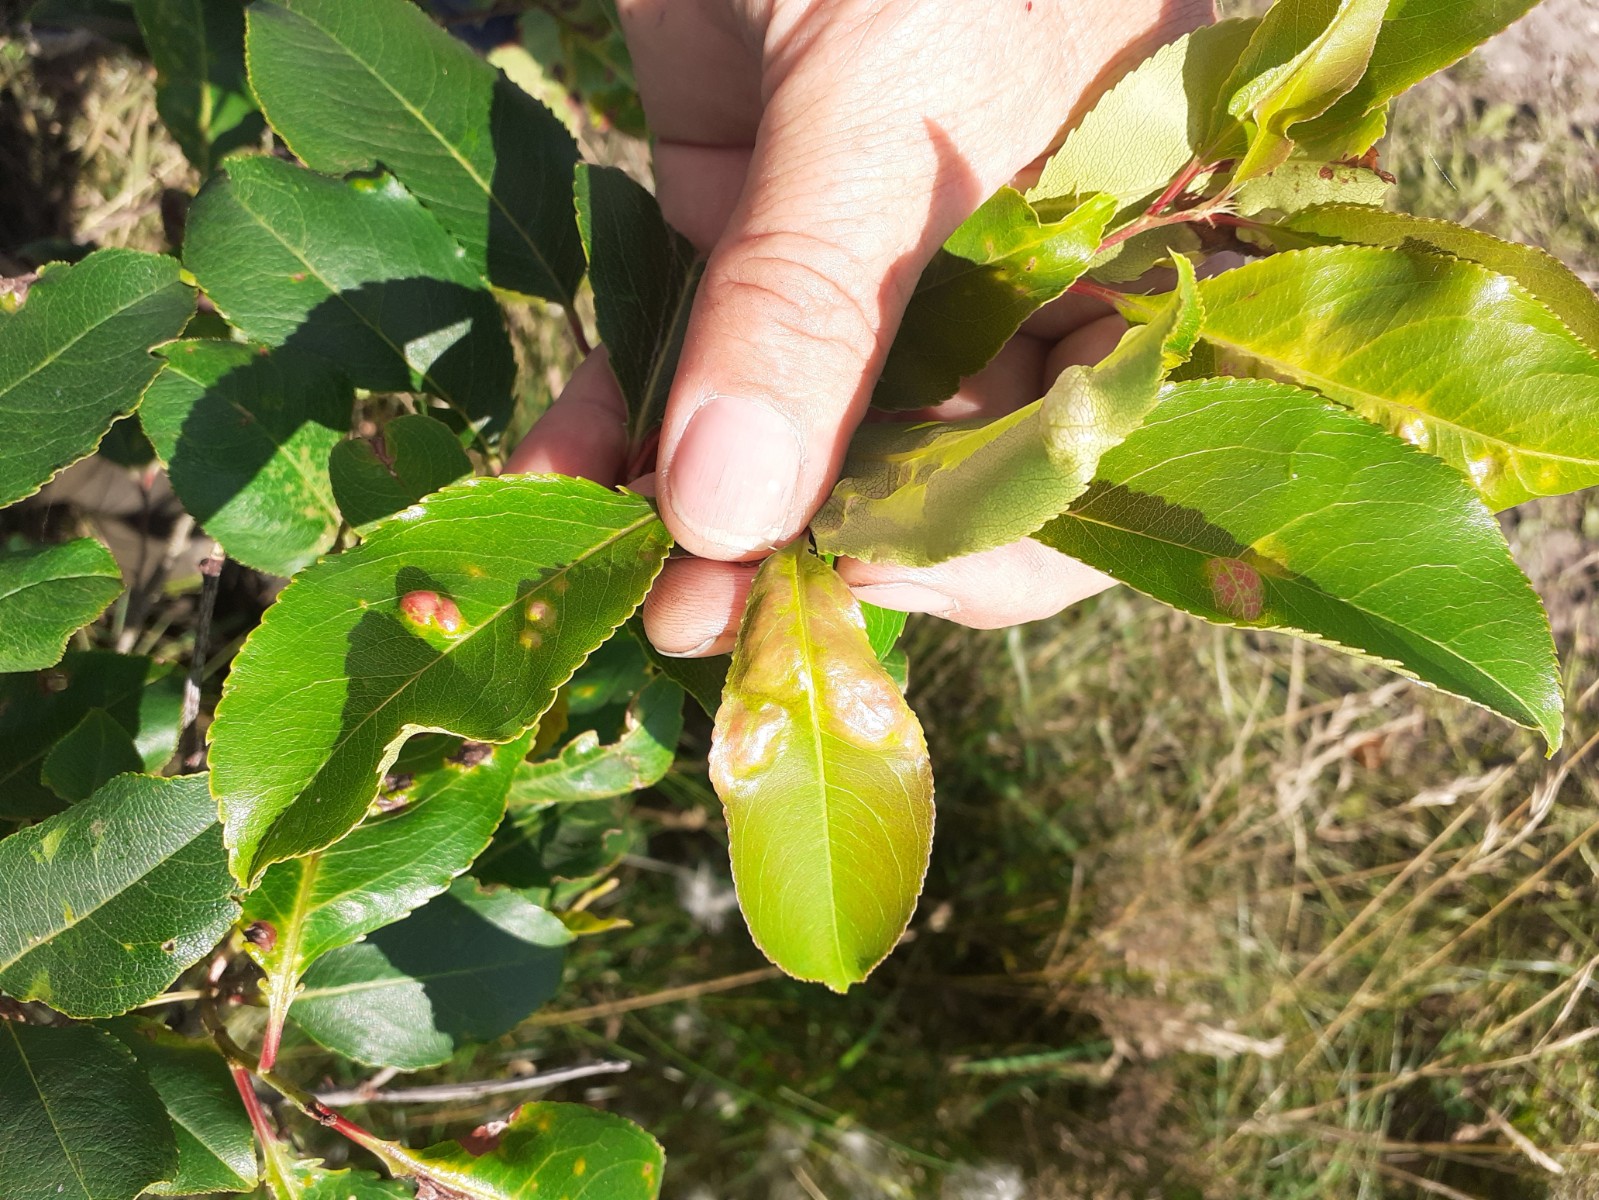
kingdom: Fungi
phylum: Ascomycota
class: Taphrinomycetes
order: Taphrinales
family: Taphrinaceae
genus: Taphrina
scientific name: Taphrina deformans
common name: Peach leaf curl
